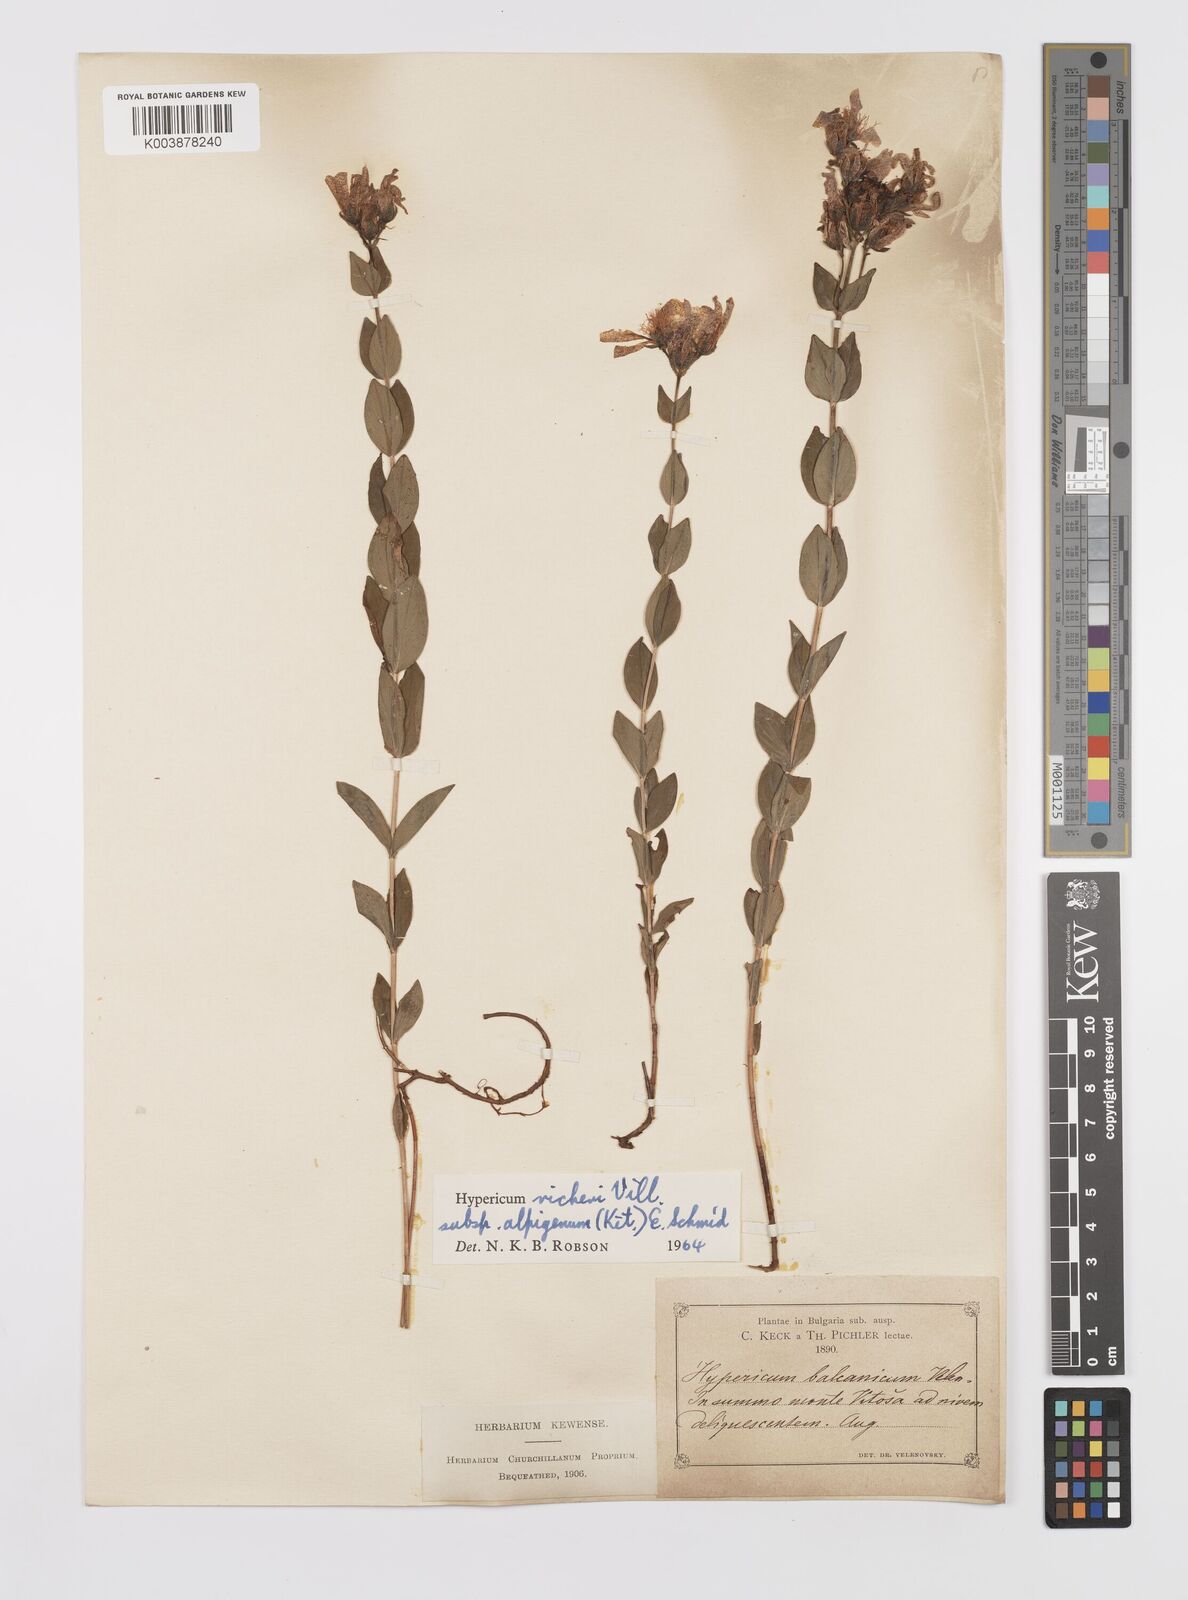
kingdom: Plantae
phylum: Tracheophyta
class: Magnoliopsida
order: Malpighiales
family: Hypericaceae
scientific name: Hypericaceae
